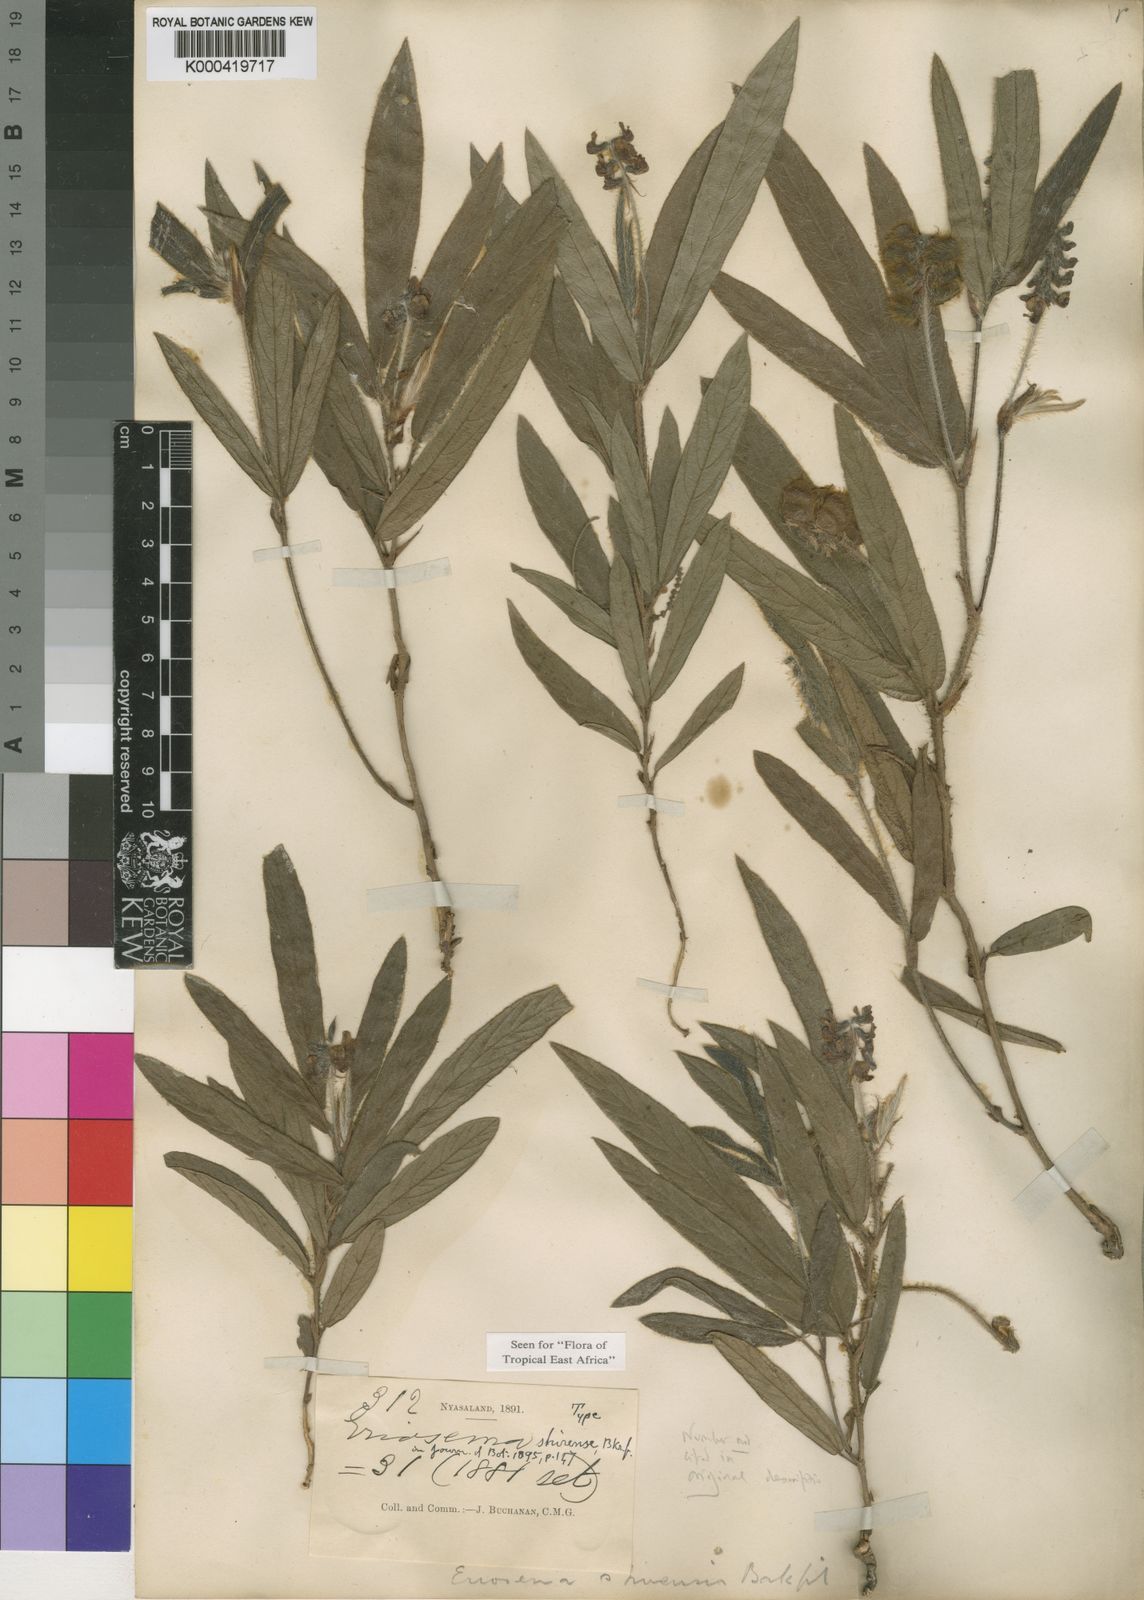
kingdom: Plantae
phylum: Tracheophyta
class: Magnoliopsida
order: Fabales
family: Fabaceae
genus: Eriosema
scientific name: Eriosema shirense
